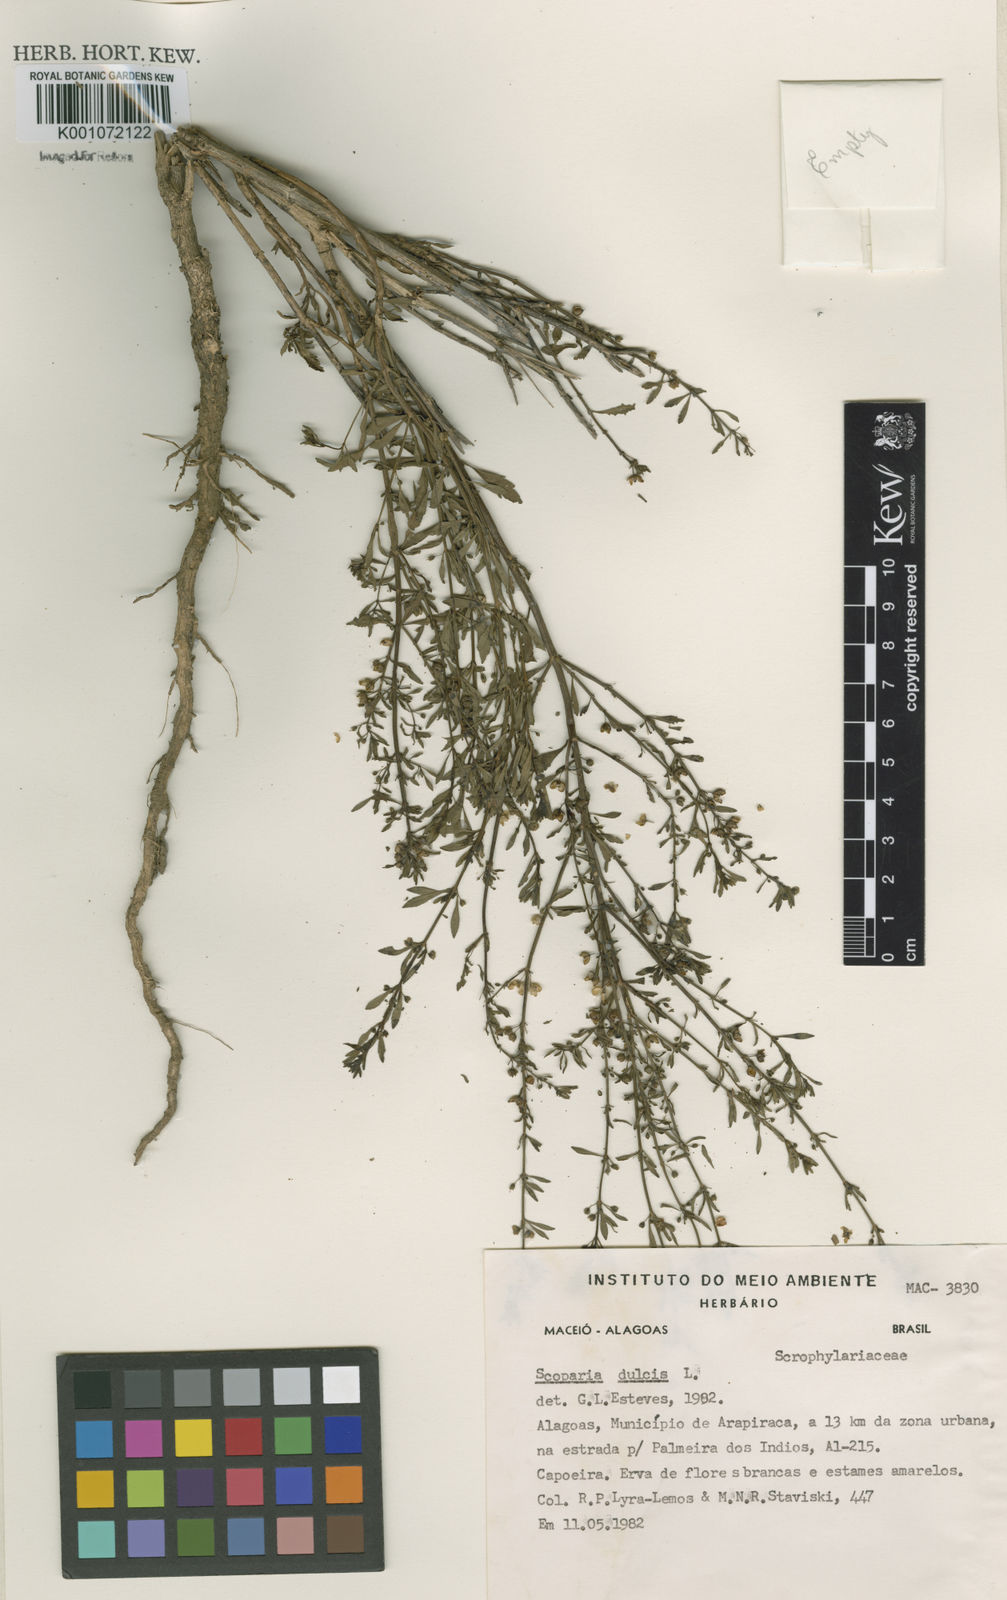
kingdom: Plantae
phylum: Tracheophyta
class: Magnoliopsida
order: Lamiales
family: Plantaginaceae
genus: Scoparia
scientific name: Scoparia dulcis
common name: Scoparia-weed
